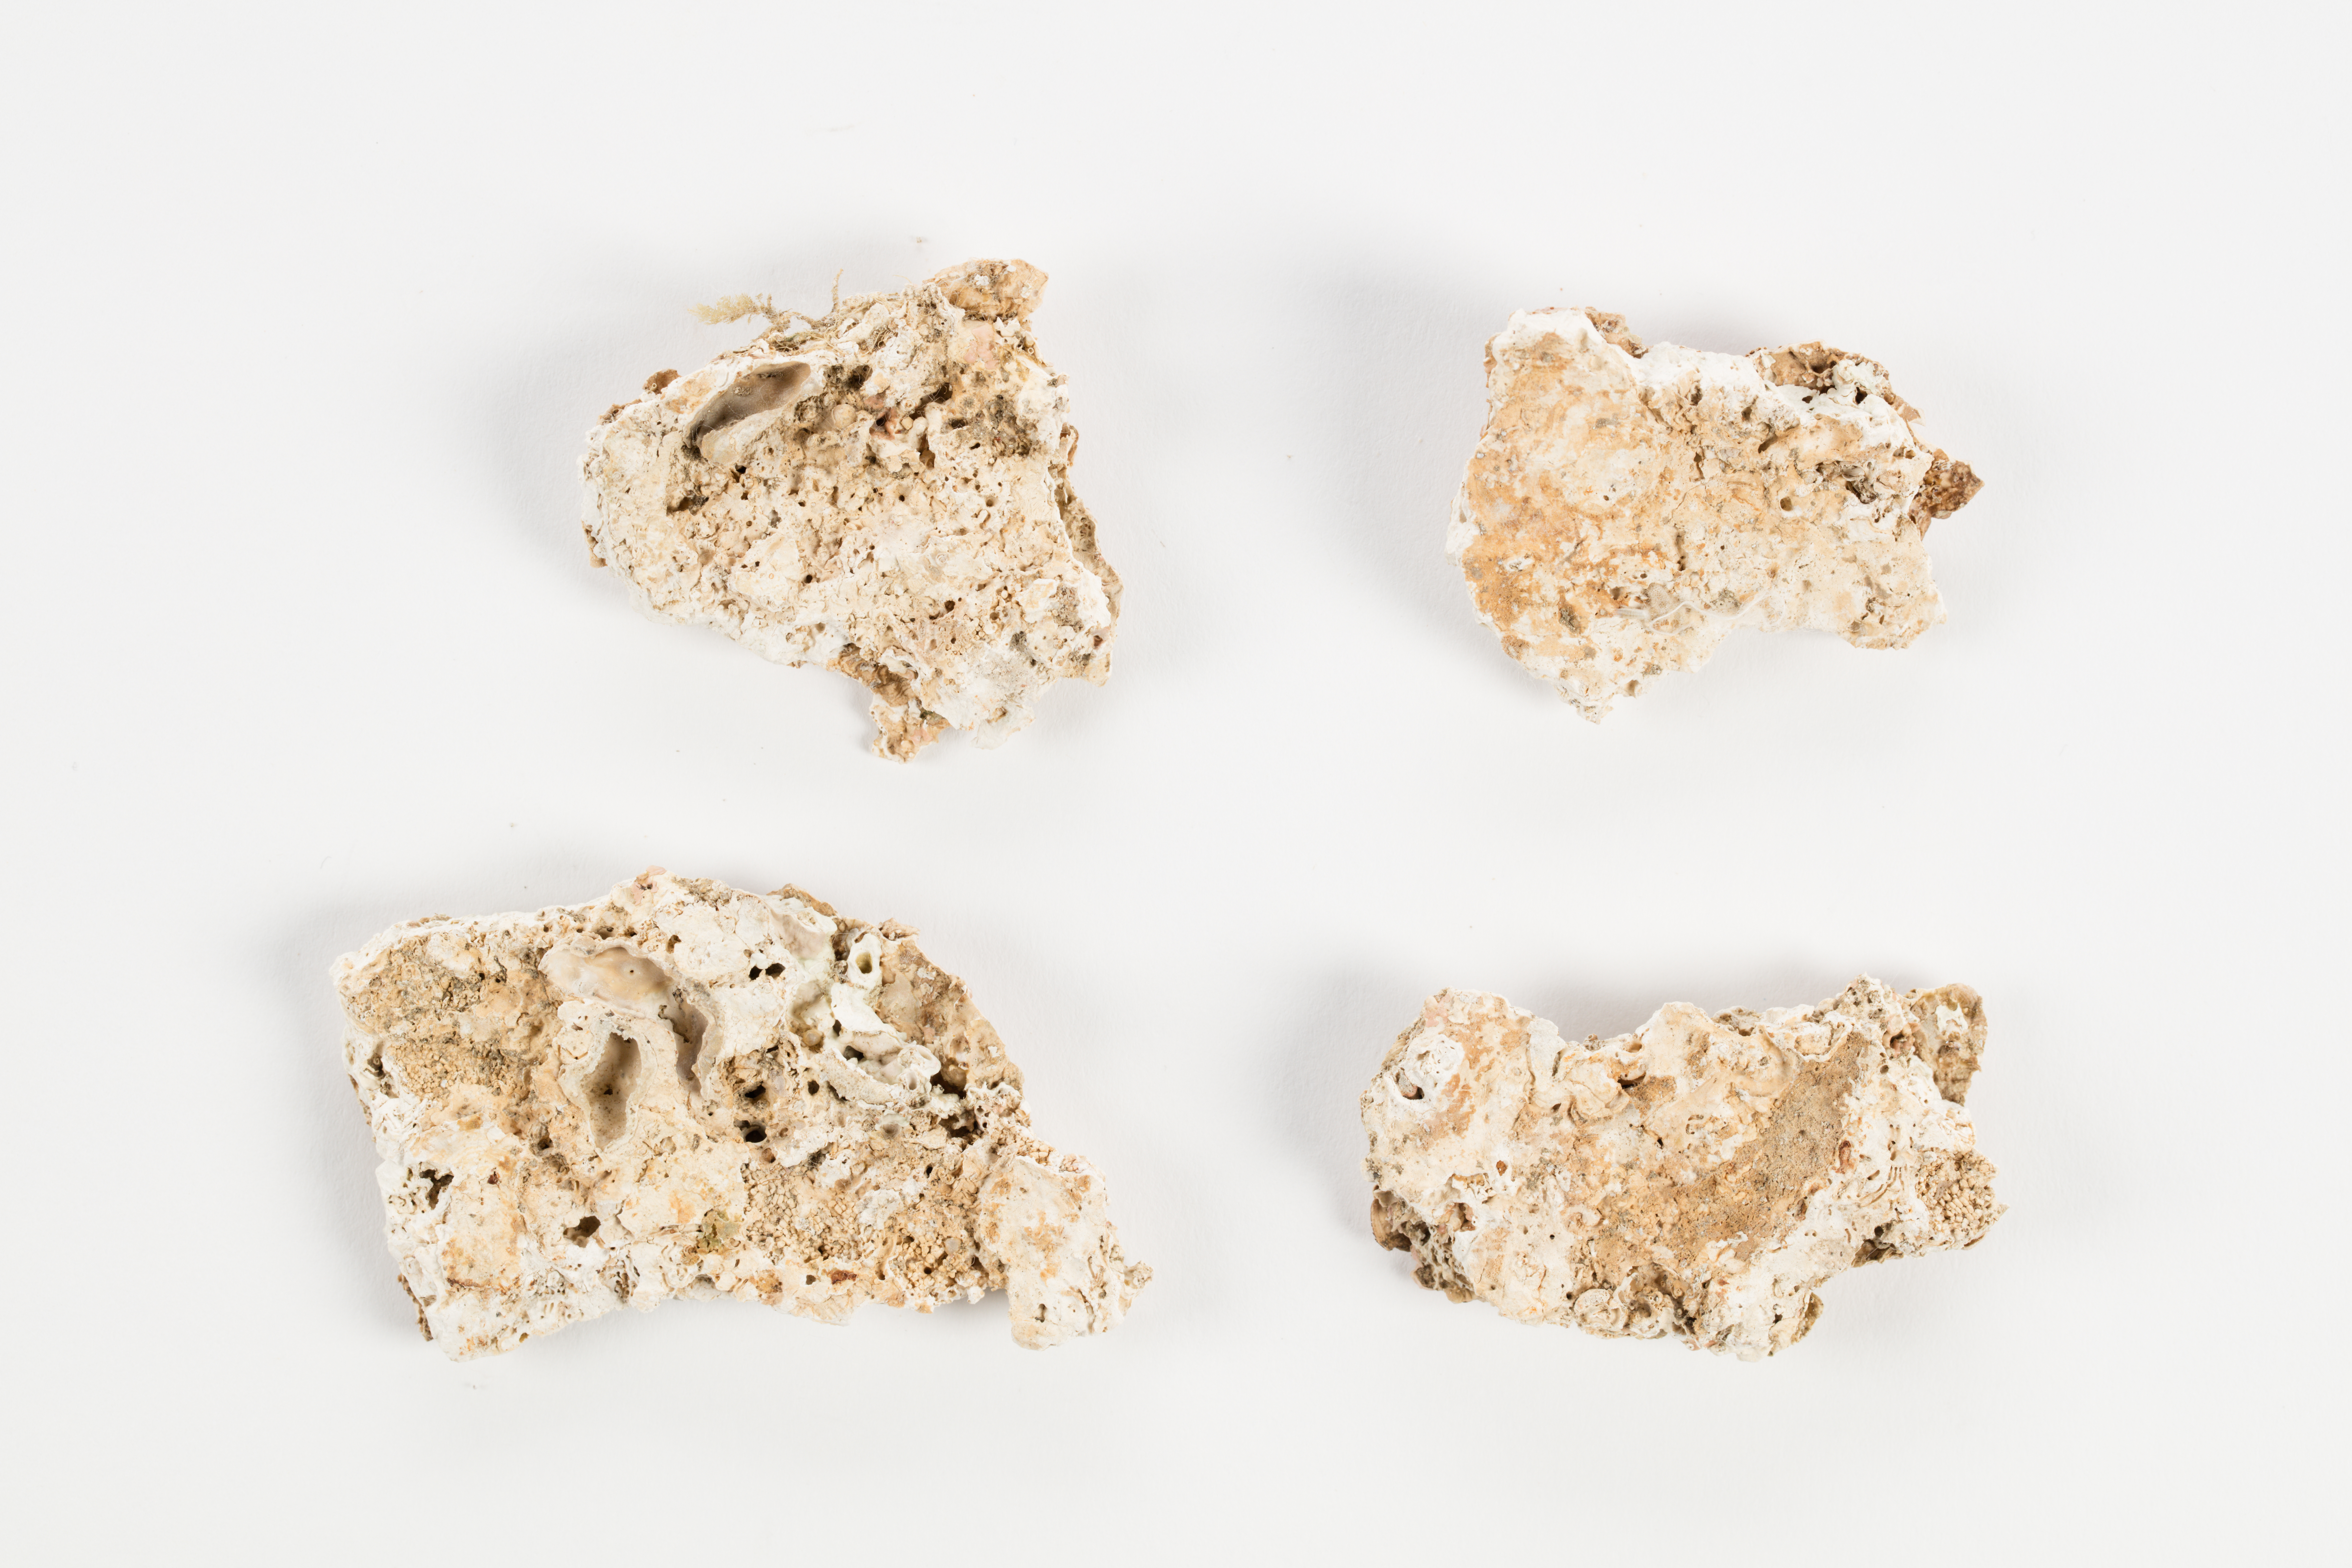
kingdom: Plantae
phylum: Rhodophyta
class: Florideophyceae
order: Corallinales
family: Hapalidiaceae
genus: Lithothamnion
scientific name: Lithothamnion
